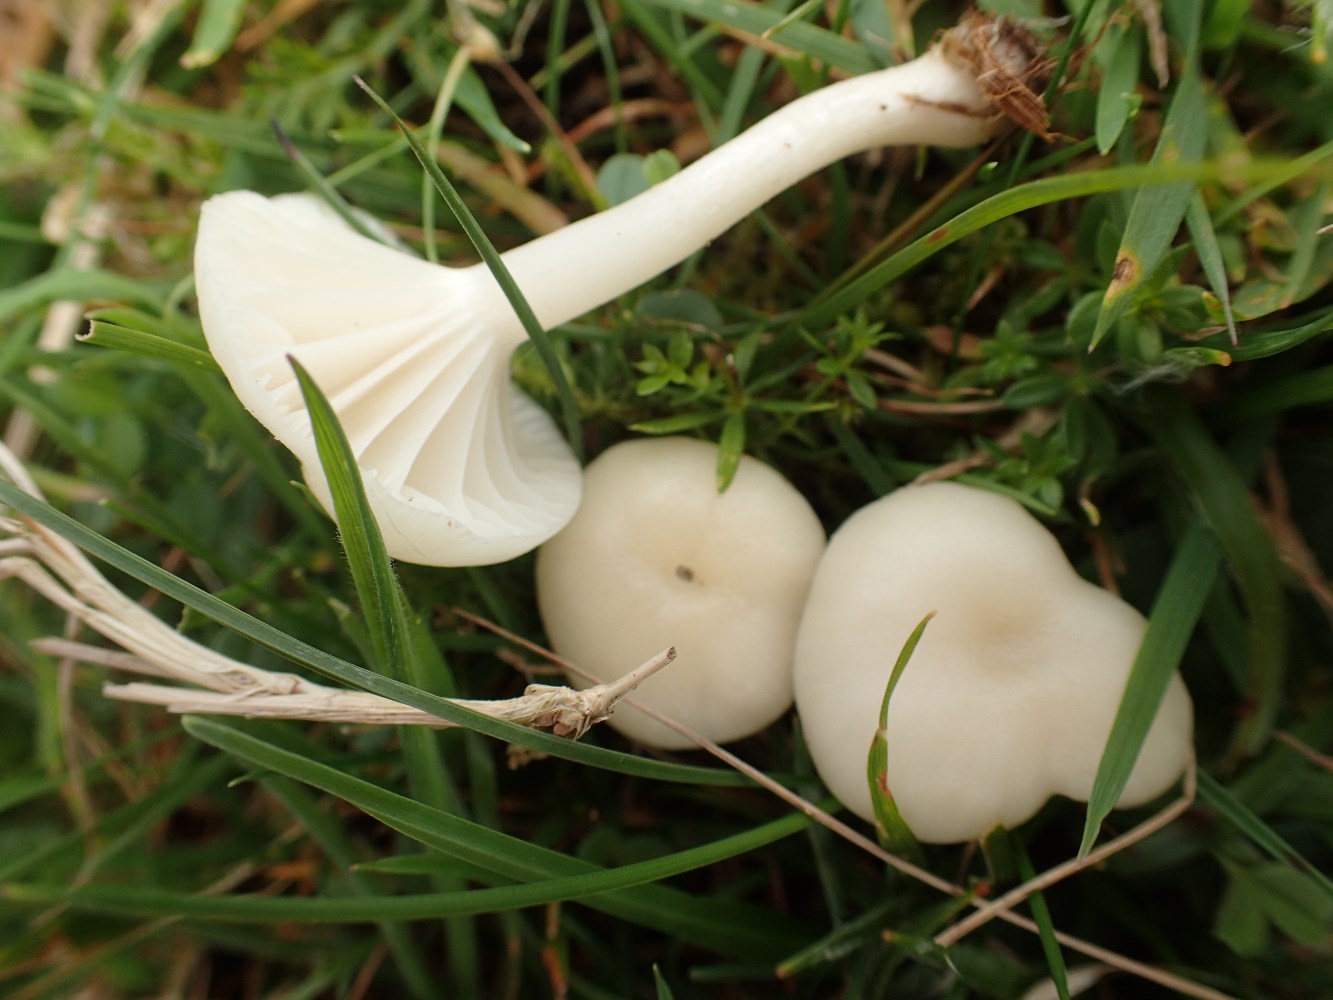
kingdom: Fungi
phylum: Basidiomycota
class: Agaricomycetes
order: Agaricales
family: Hygrophoraceae
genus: Cuphophyllus
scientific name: Cuphophyllus virgineus
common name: snehvid vokshat
